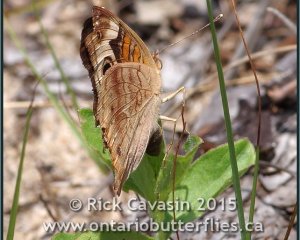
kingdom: Animalia
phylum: Arthropoda
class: Insecta
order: Lepidoptera
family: Nymphalidae
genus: Junonia
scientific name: Junonia coenia
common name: Common Buckeye
